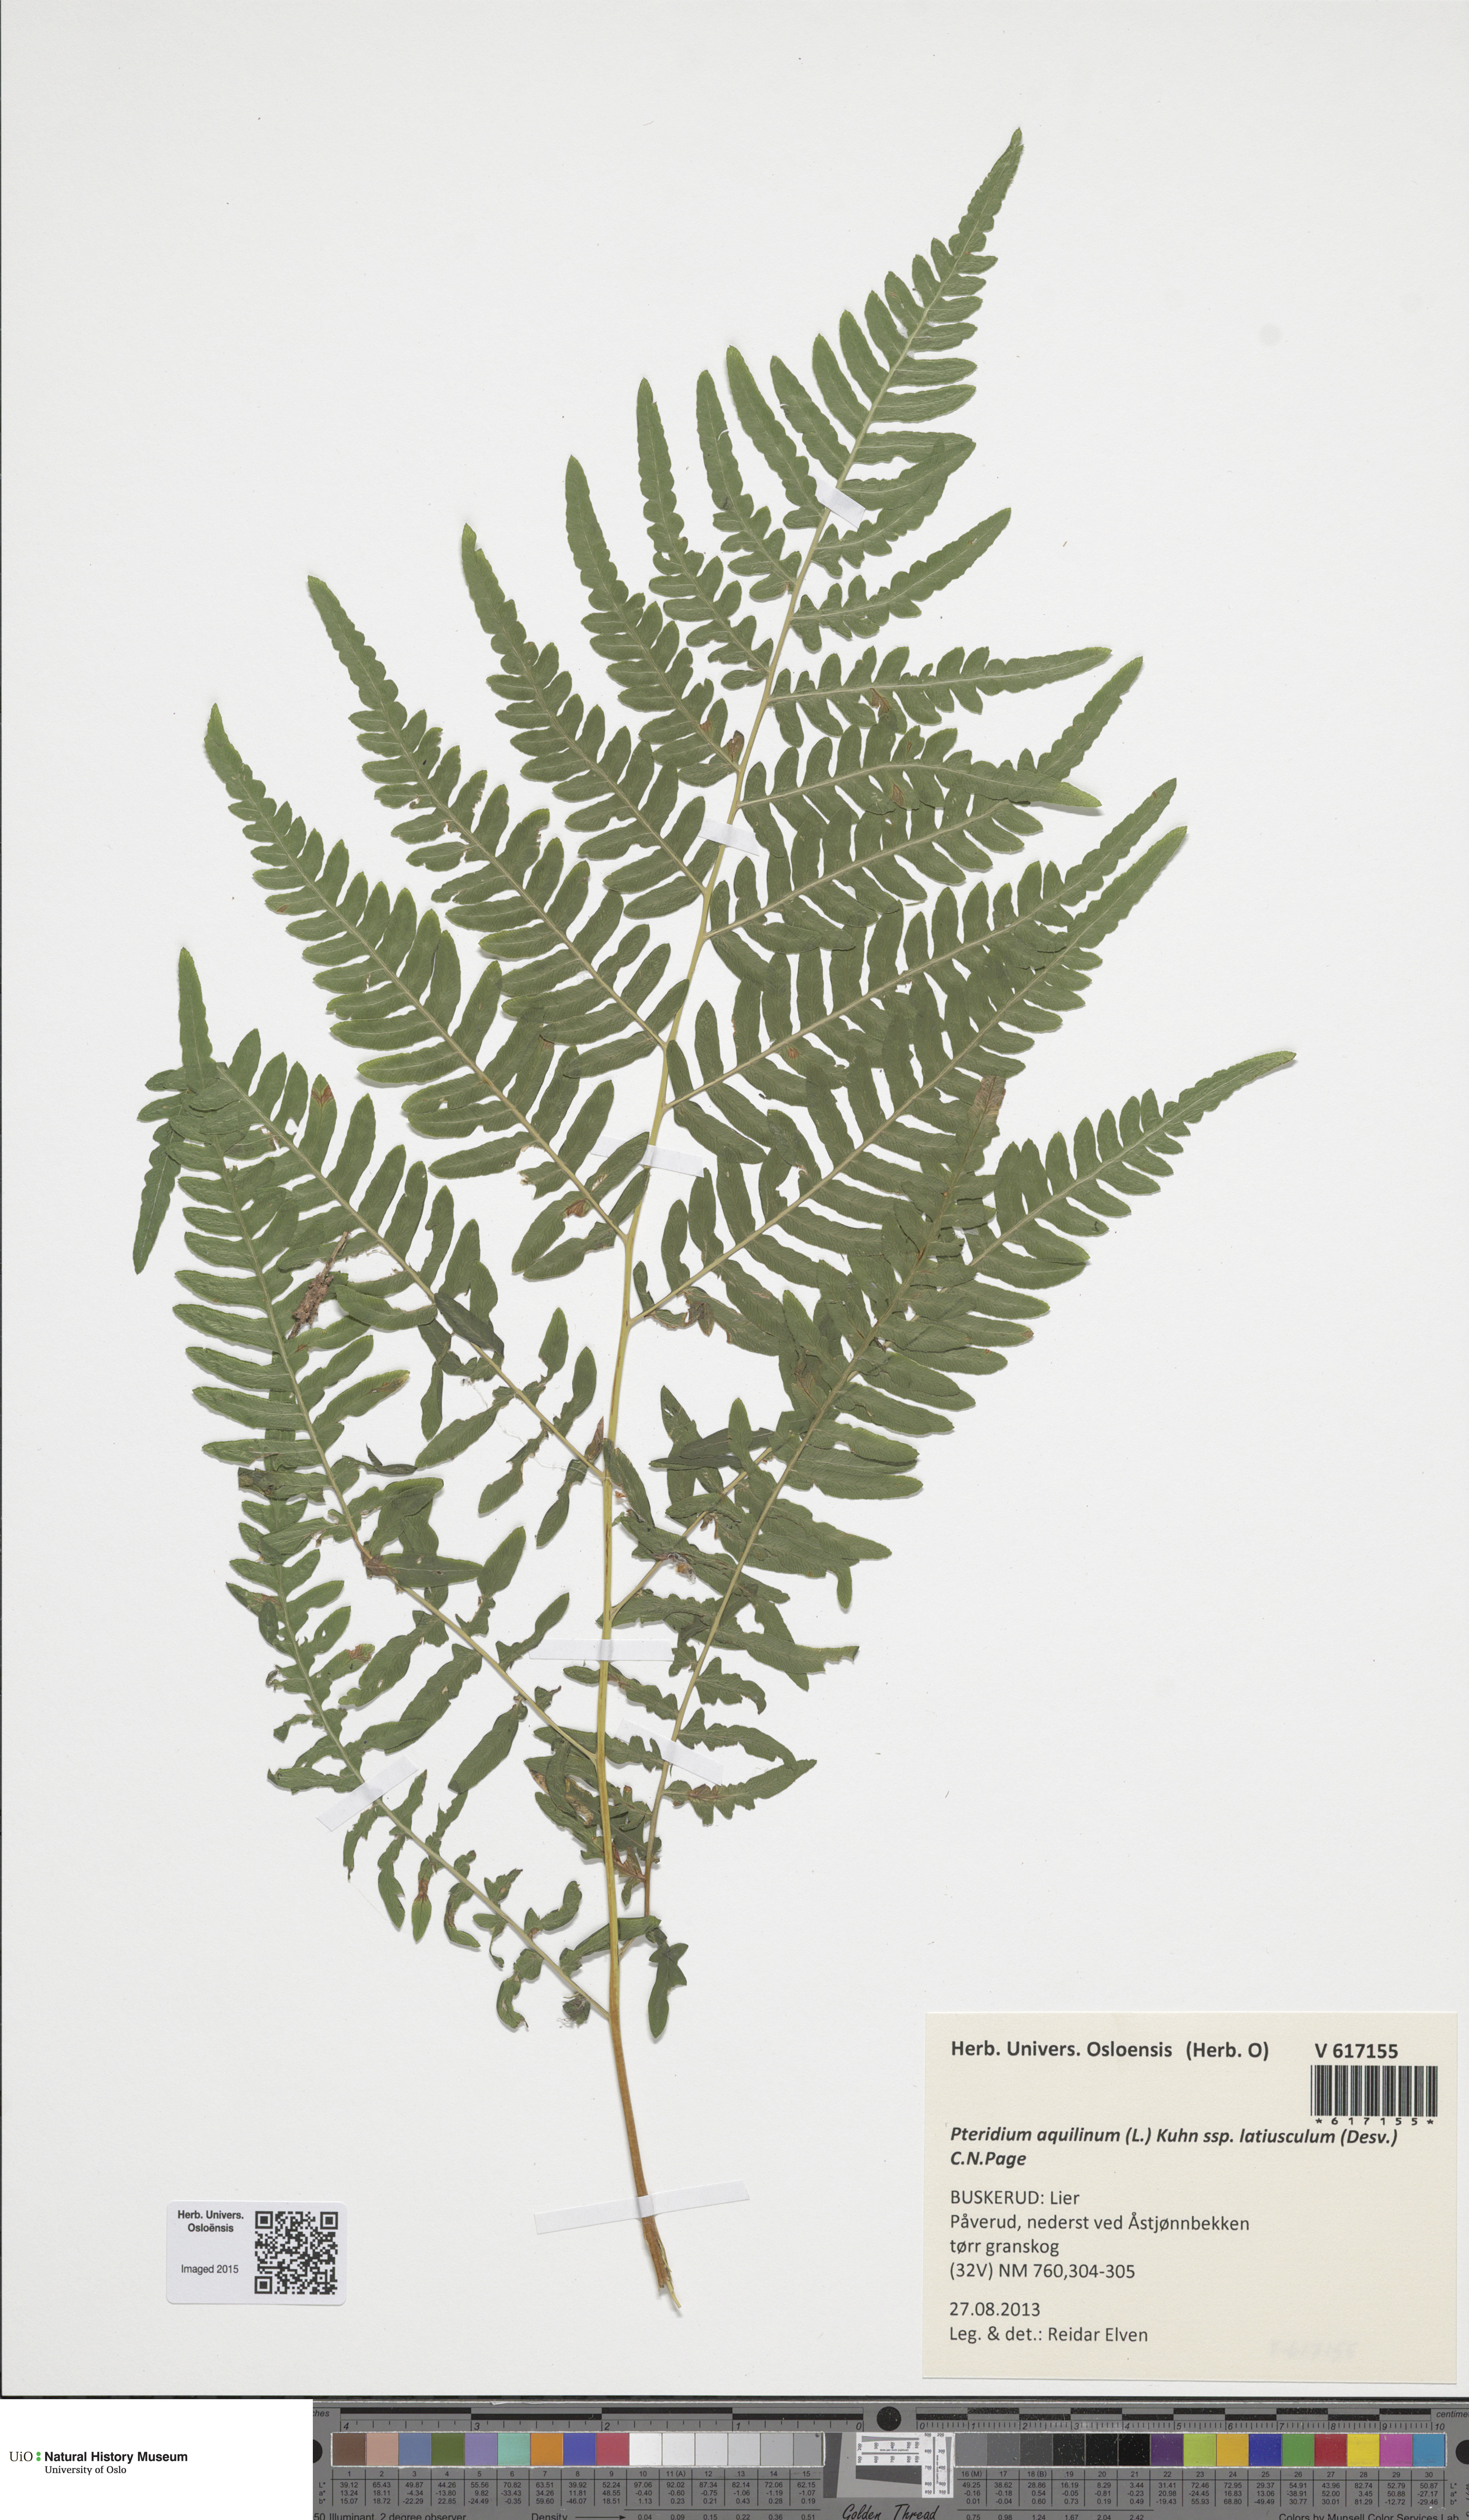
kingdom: Plantae
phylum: Tracheophyta
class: Polypodiopsida
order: Polypodiales
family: Dennstaedtiaceae
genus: Pteridium
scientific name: Pteridium aquilinum
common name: Bracken
